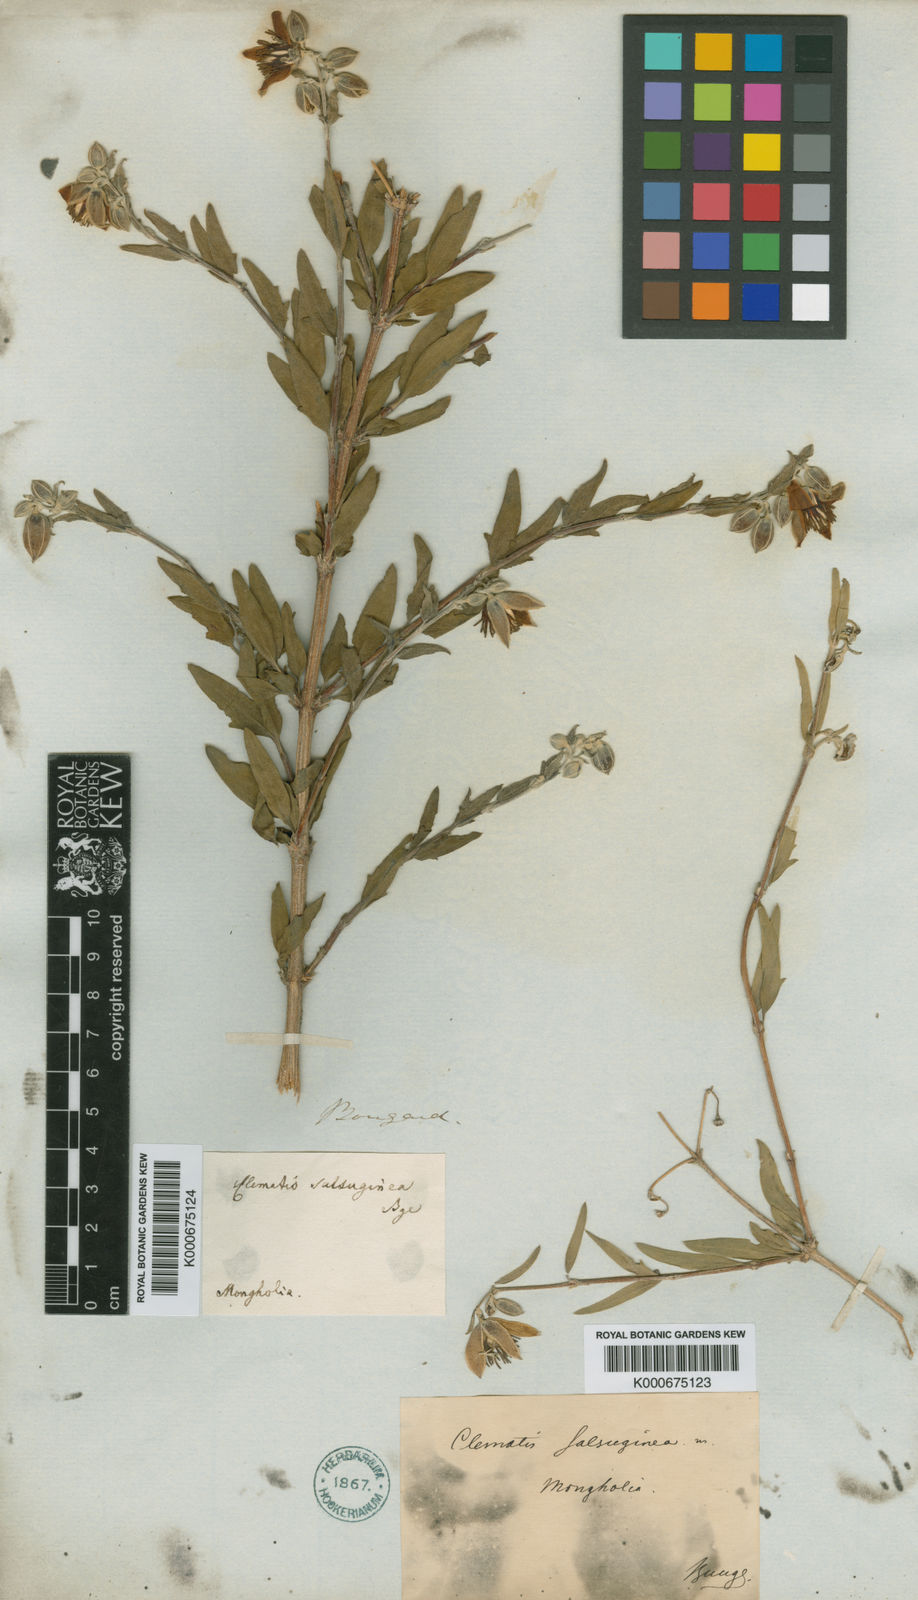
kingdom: Plantae
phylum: Tracheophyta
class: Magnoliopsida
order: Ranunculales
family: Ranunculaceae
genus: Clematis
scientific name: Clematis salsuginea
